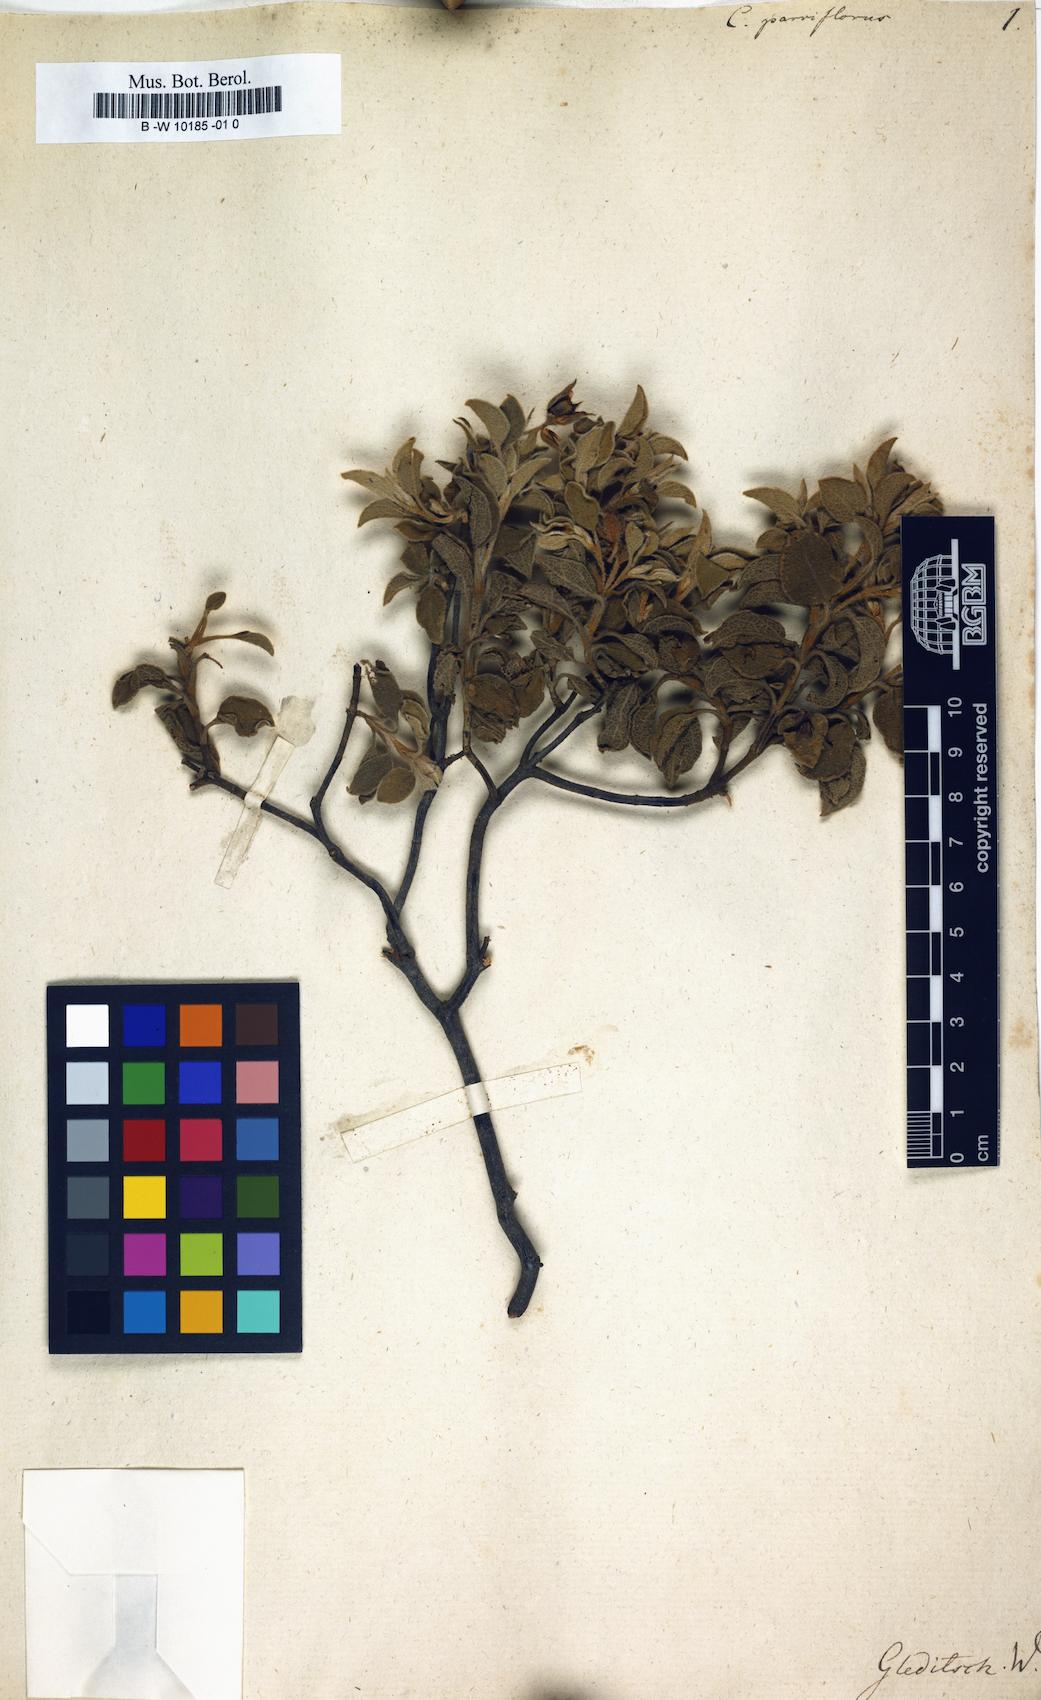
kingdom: Plantae
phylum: Tracheophyta
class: Magnoliopsida
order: Malvales
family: Cistaceae
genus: Cistus
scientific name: Cistus parviflorus
